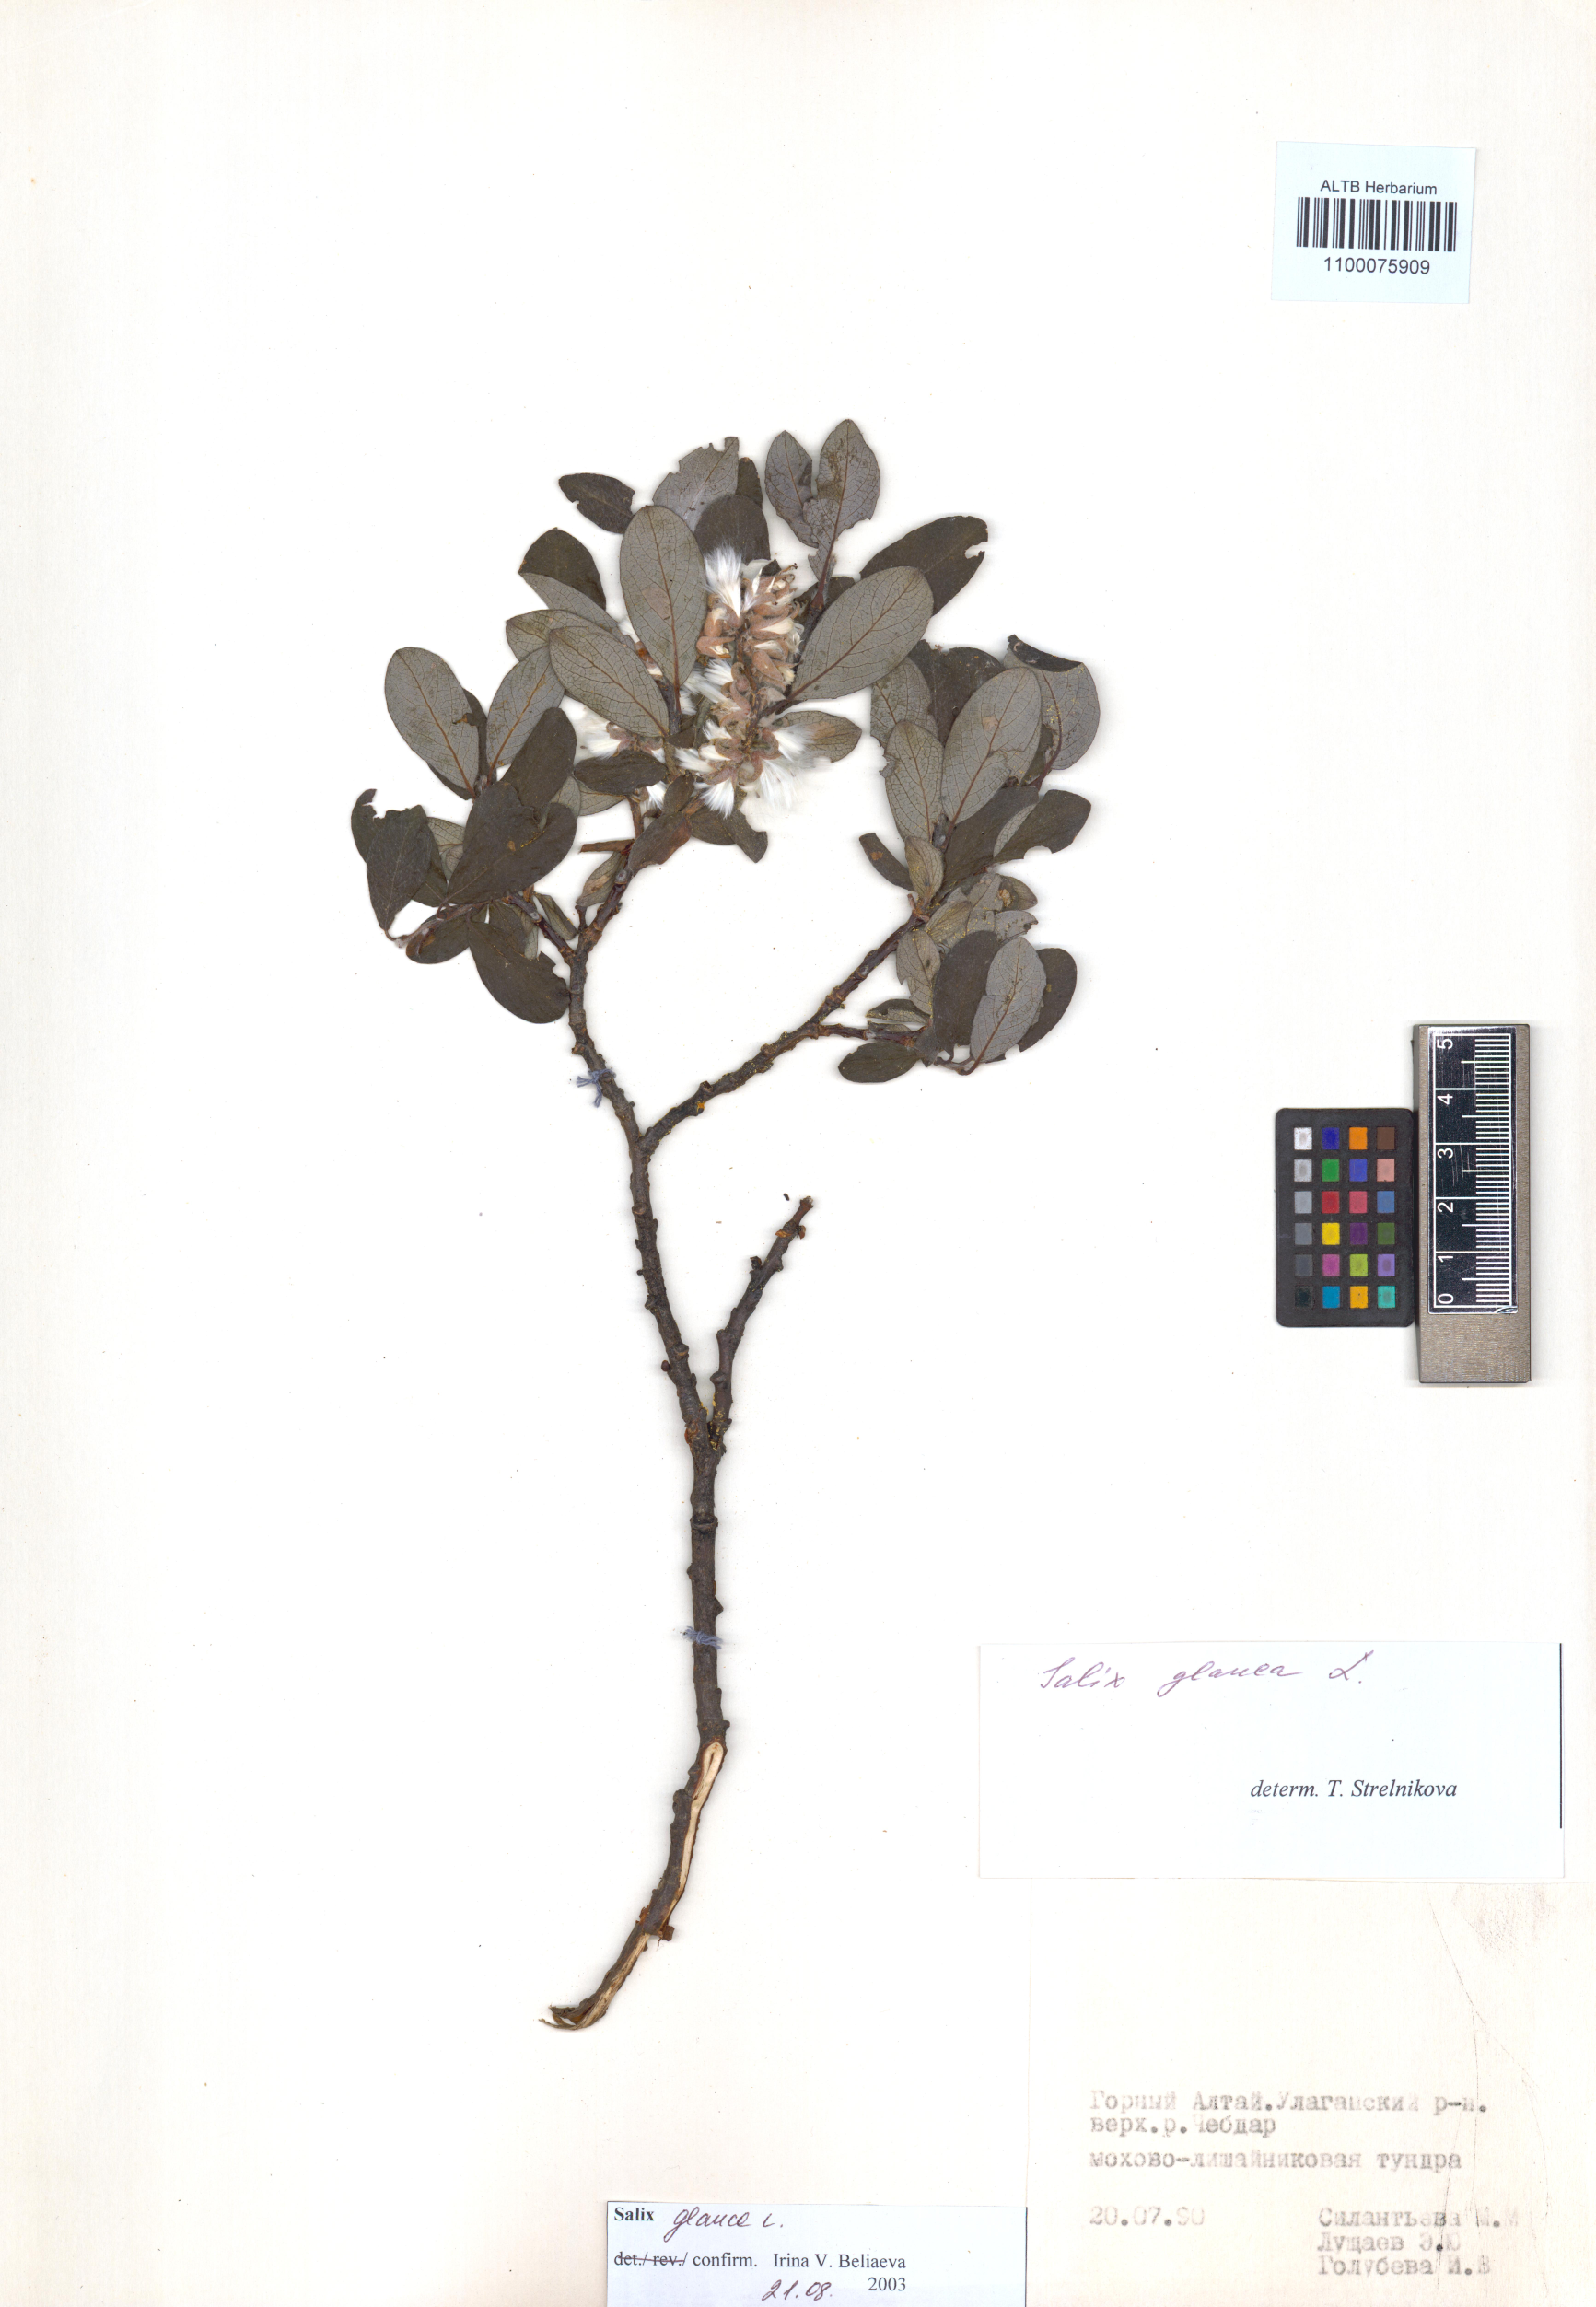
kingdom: Plantae
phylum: Tracheophyta
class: Magnoliopsida
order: Malpighiales
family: Salicaceae
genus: Salix
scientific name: Salix glauca
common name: Glaucous willow
